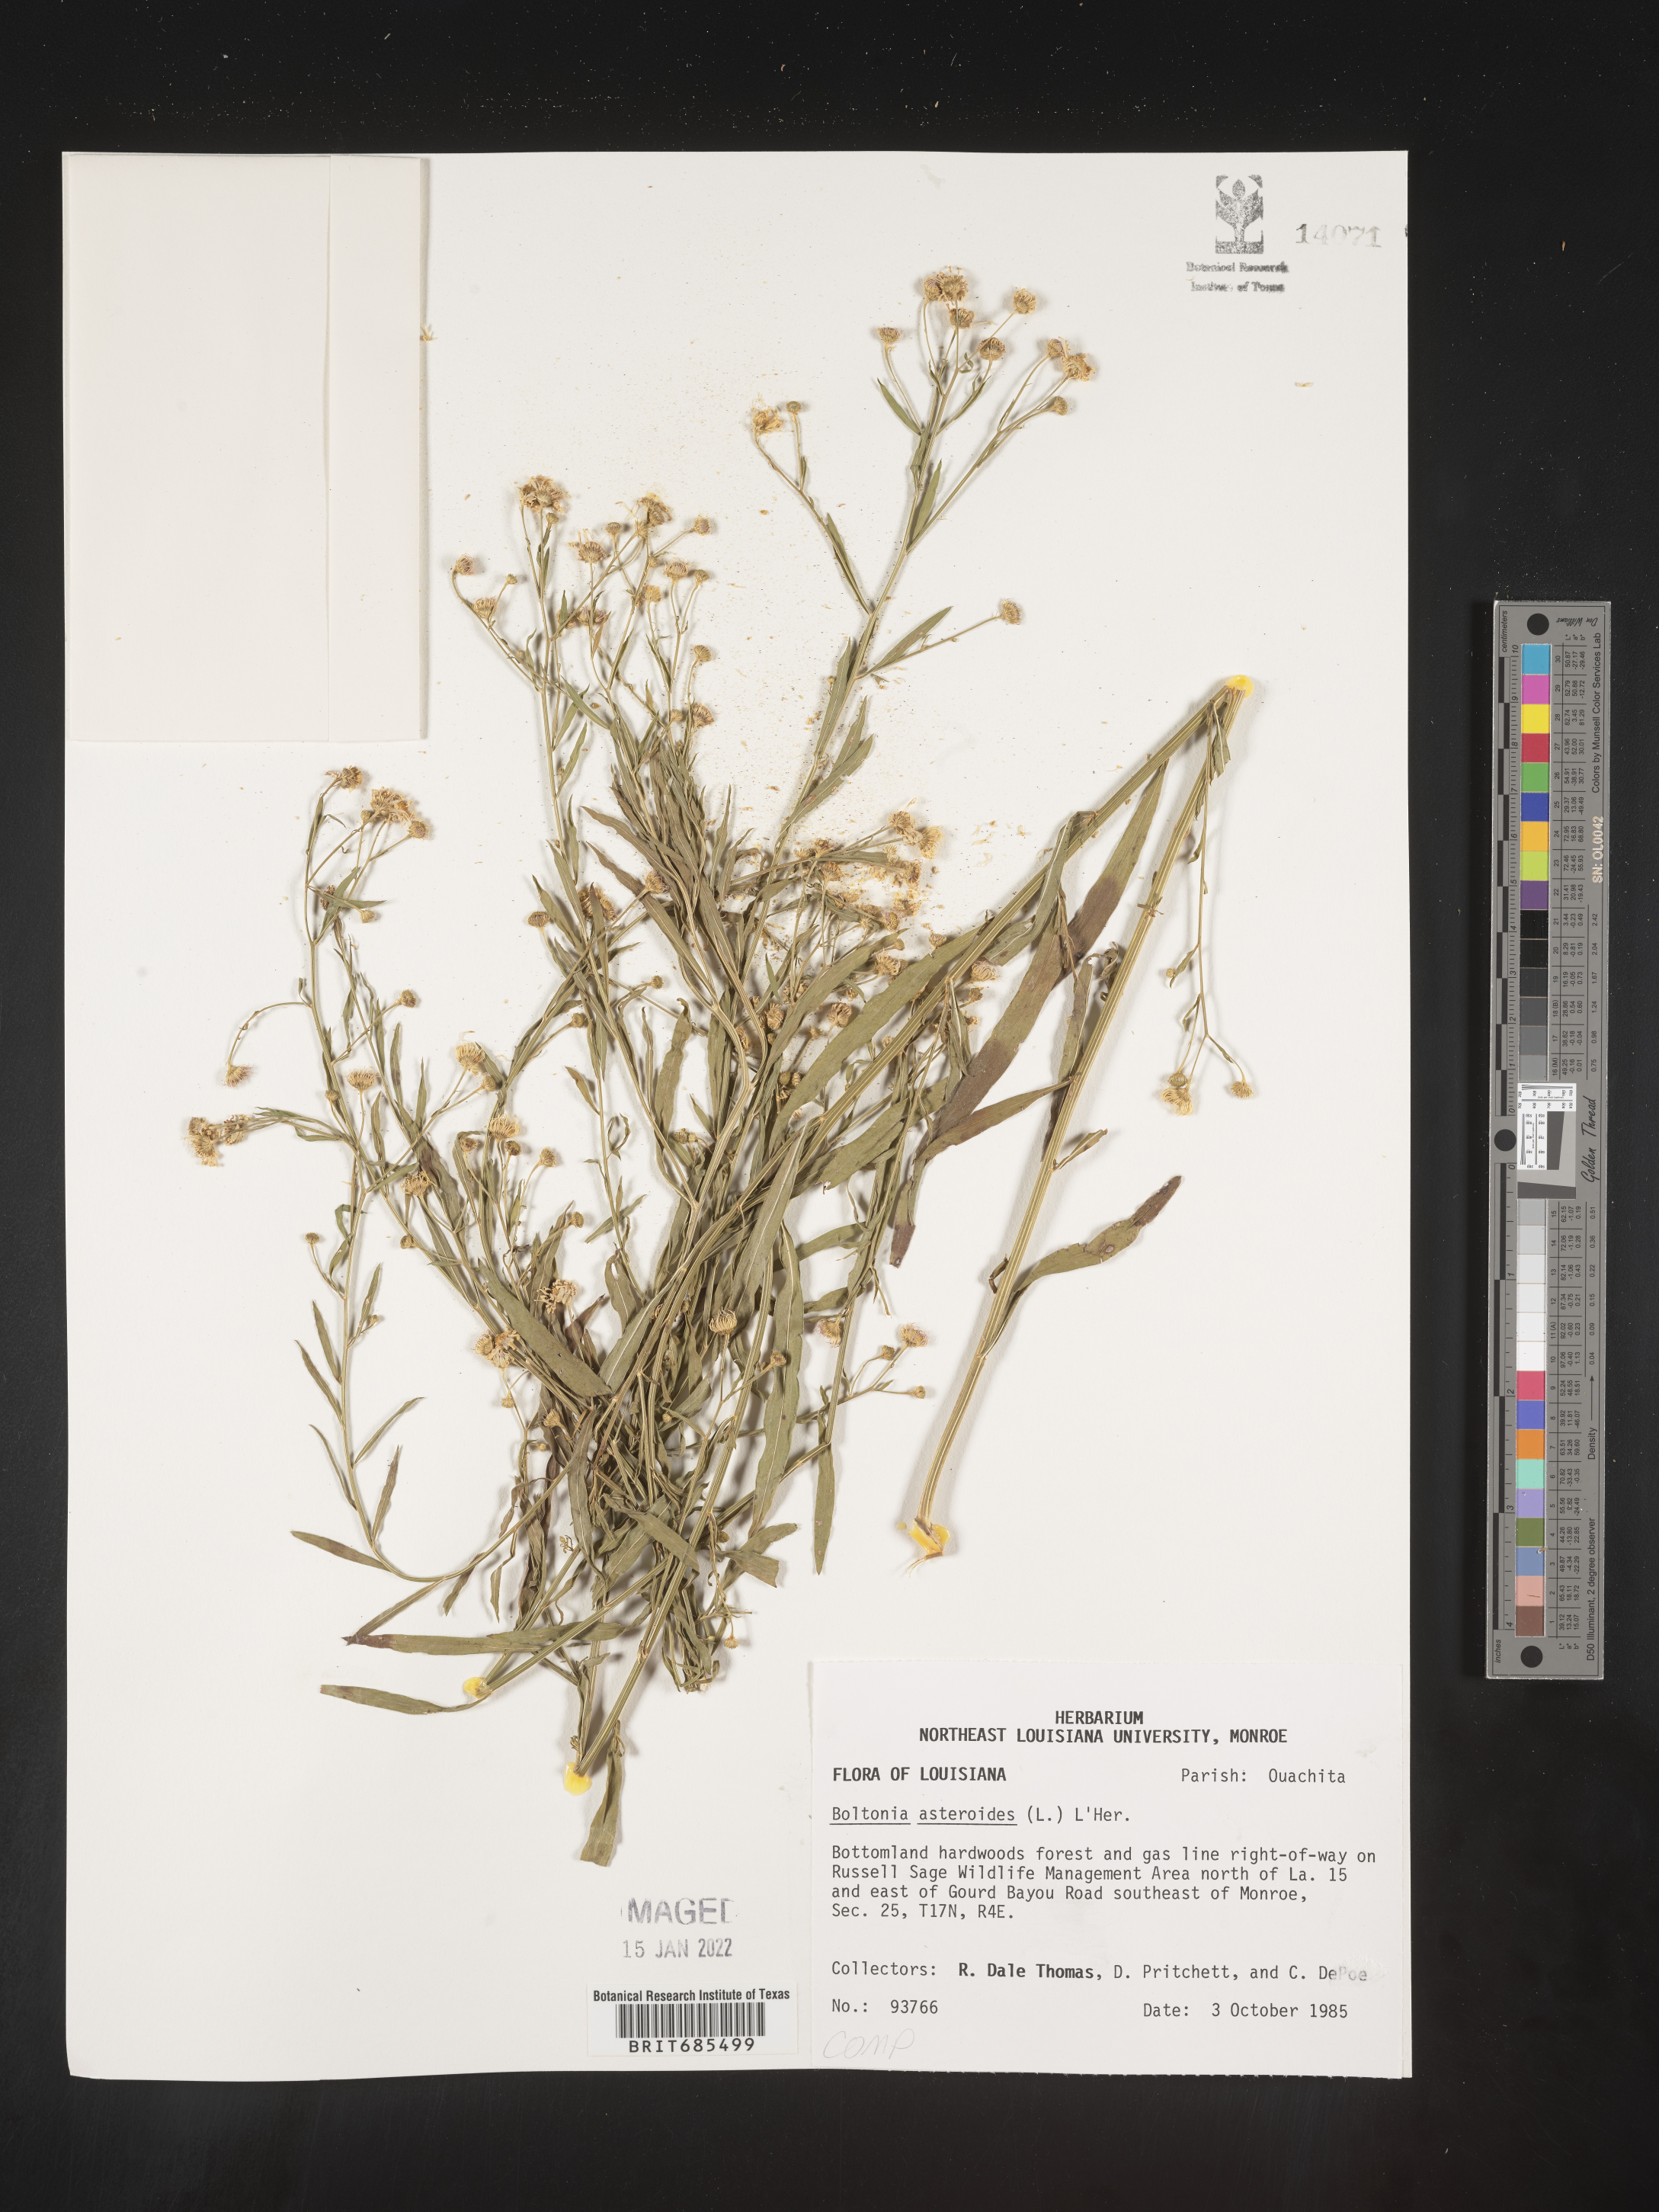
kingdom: Plantae
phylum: Tracheophyta
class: Magnoliopsida
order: Asterales
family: Asteraceae
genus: Boltonia
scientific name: Boltonia asteroides
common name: False chamomile
